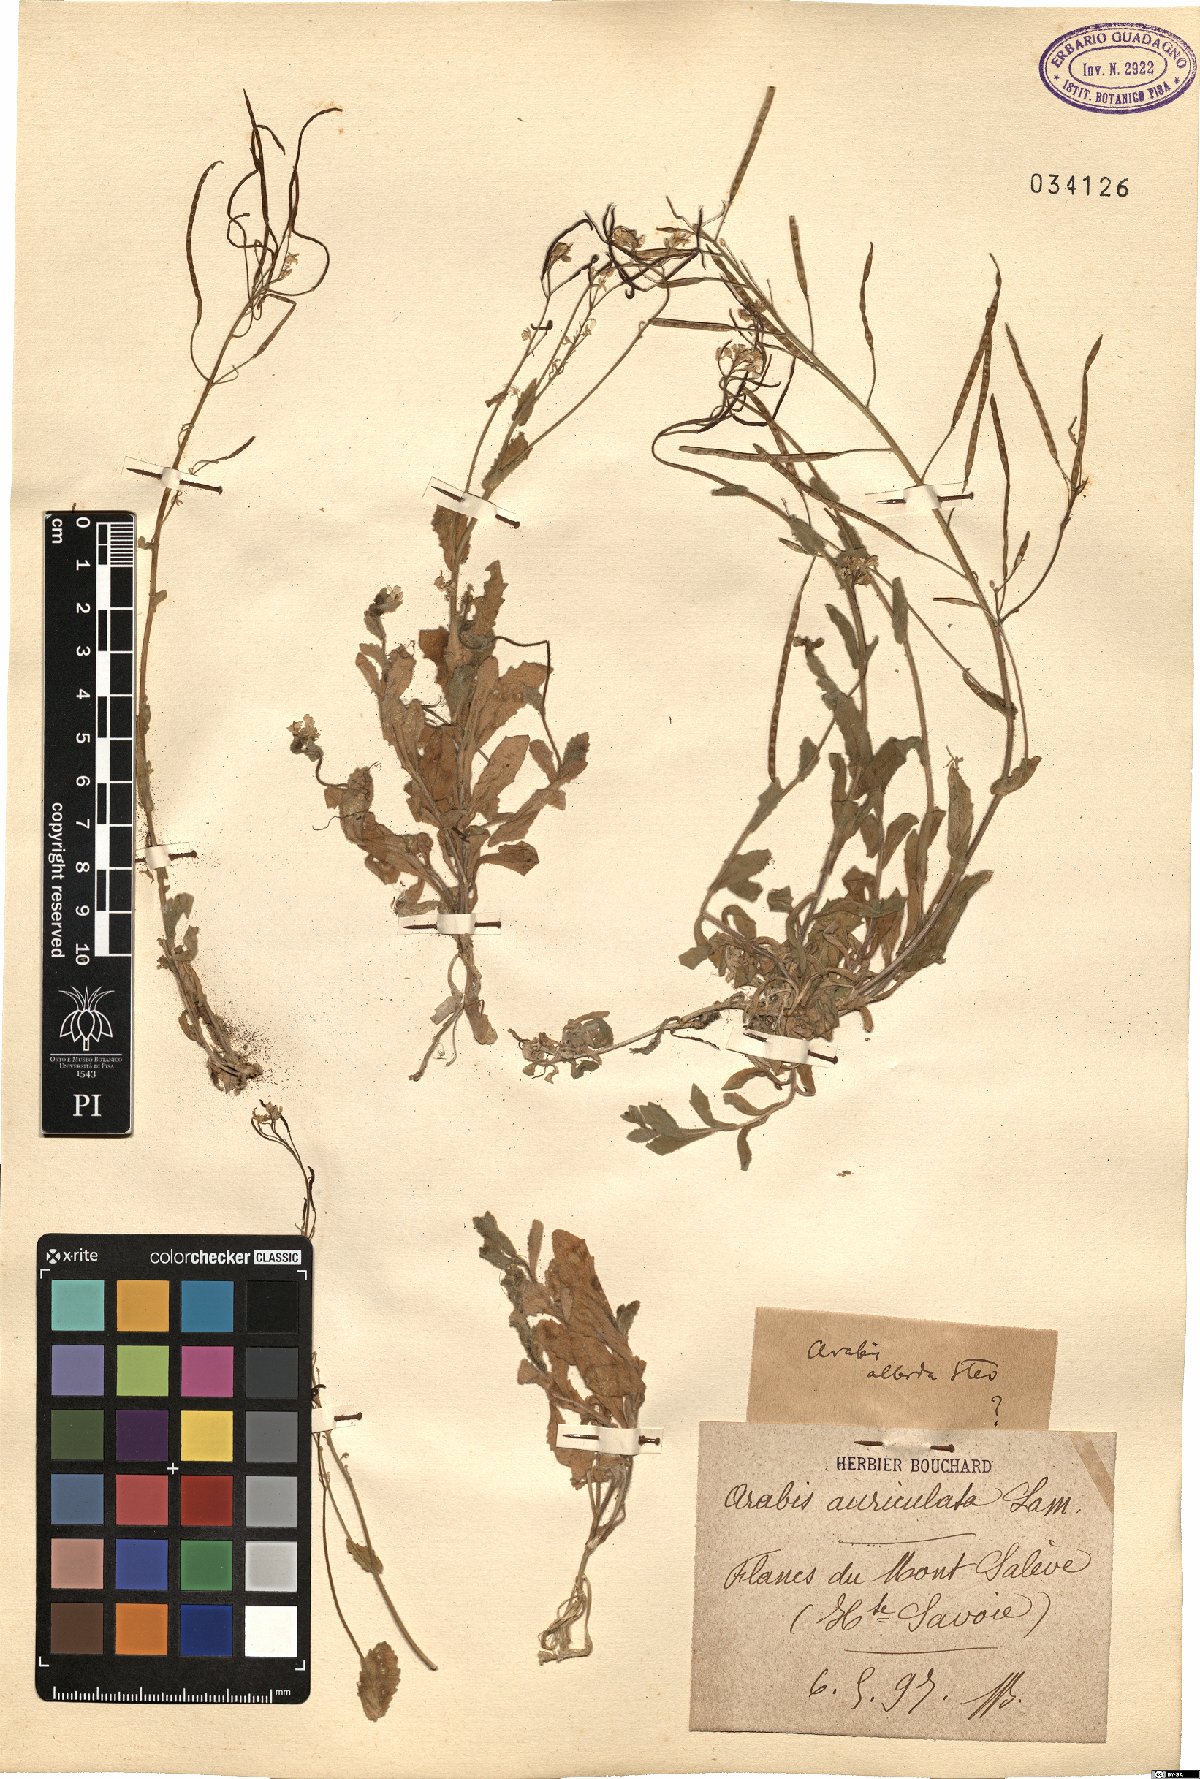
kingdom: Plantae
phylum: Tracheophyta
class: Magnoliopsida
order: Brassicales
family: Brassicaceae
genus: Arabis
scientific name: Arabis caucasica
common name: Gray rockcress
